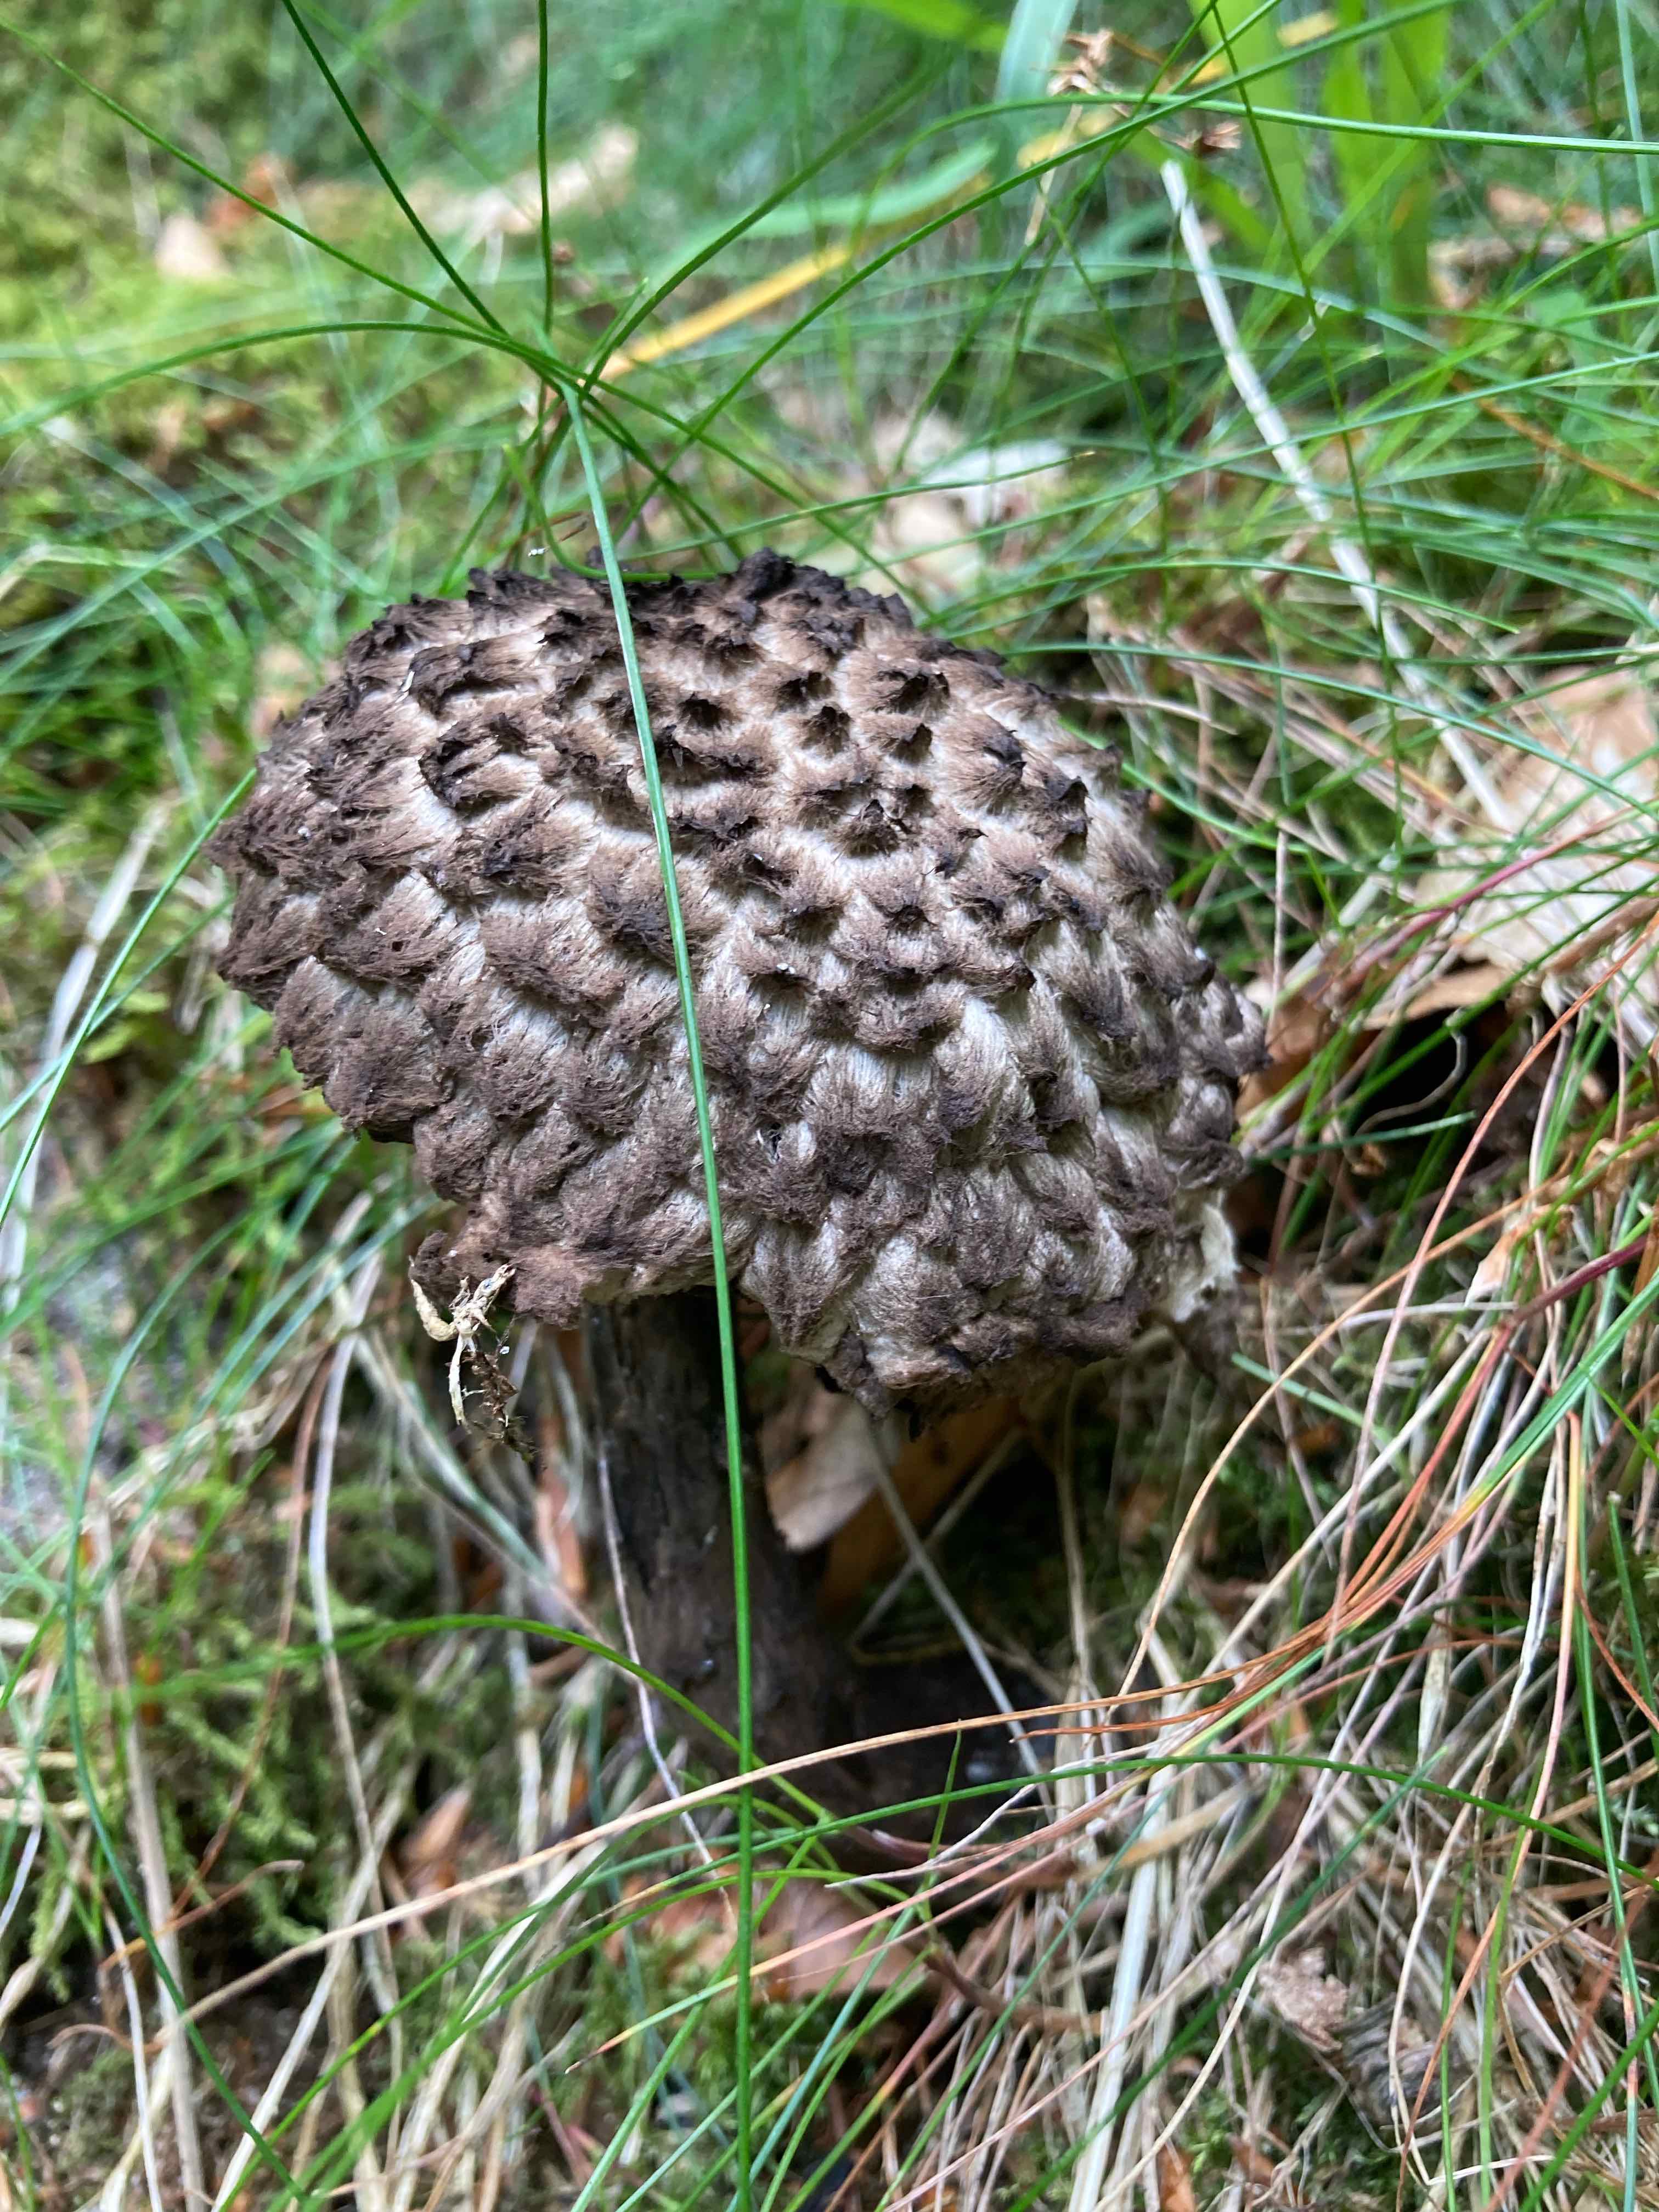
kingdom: Fungi
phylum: Basidiomycota
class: Agaricomycetes
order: Boletales
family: Boletaceae
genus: Strobilomyces
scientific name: Strobilomyces strobilaceus
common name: koglerørhat
